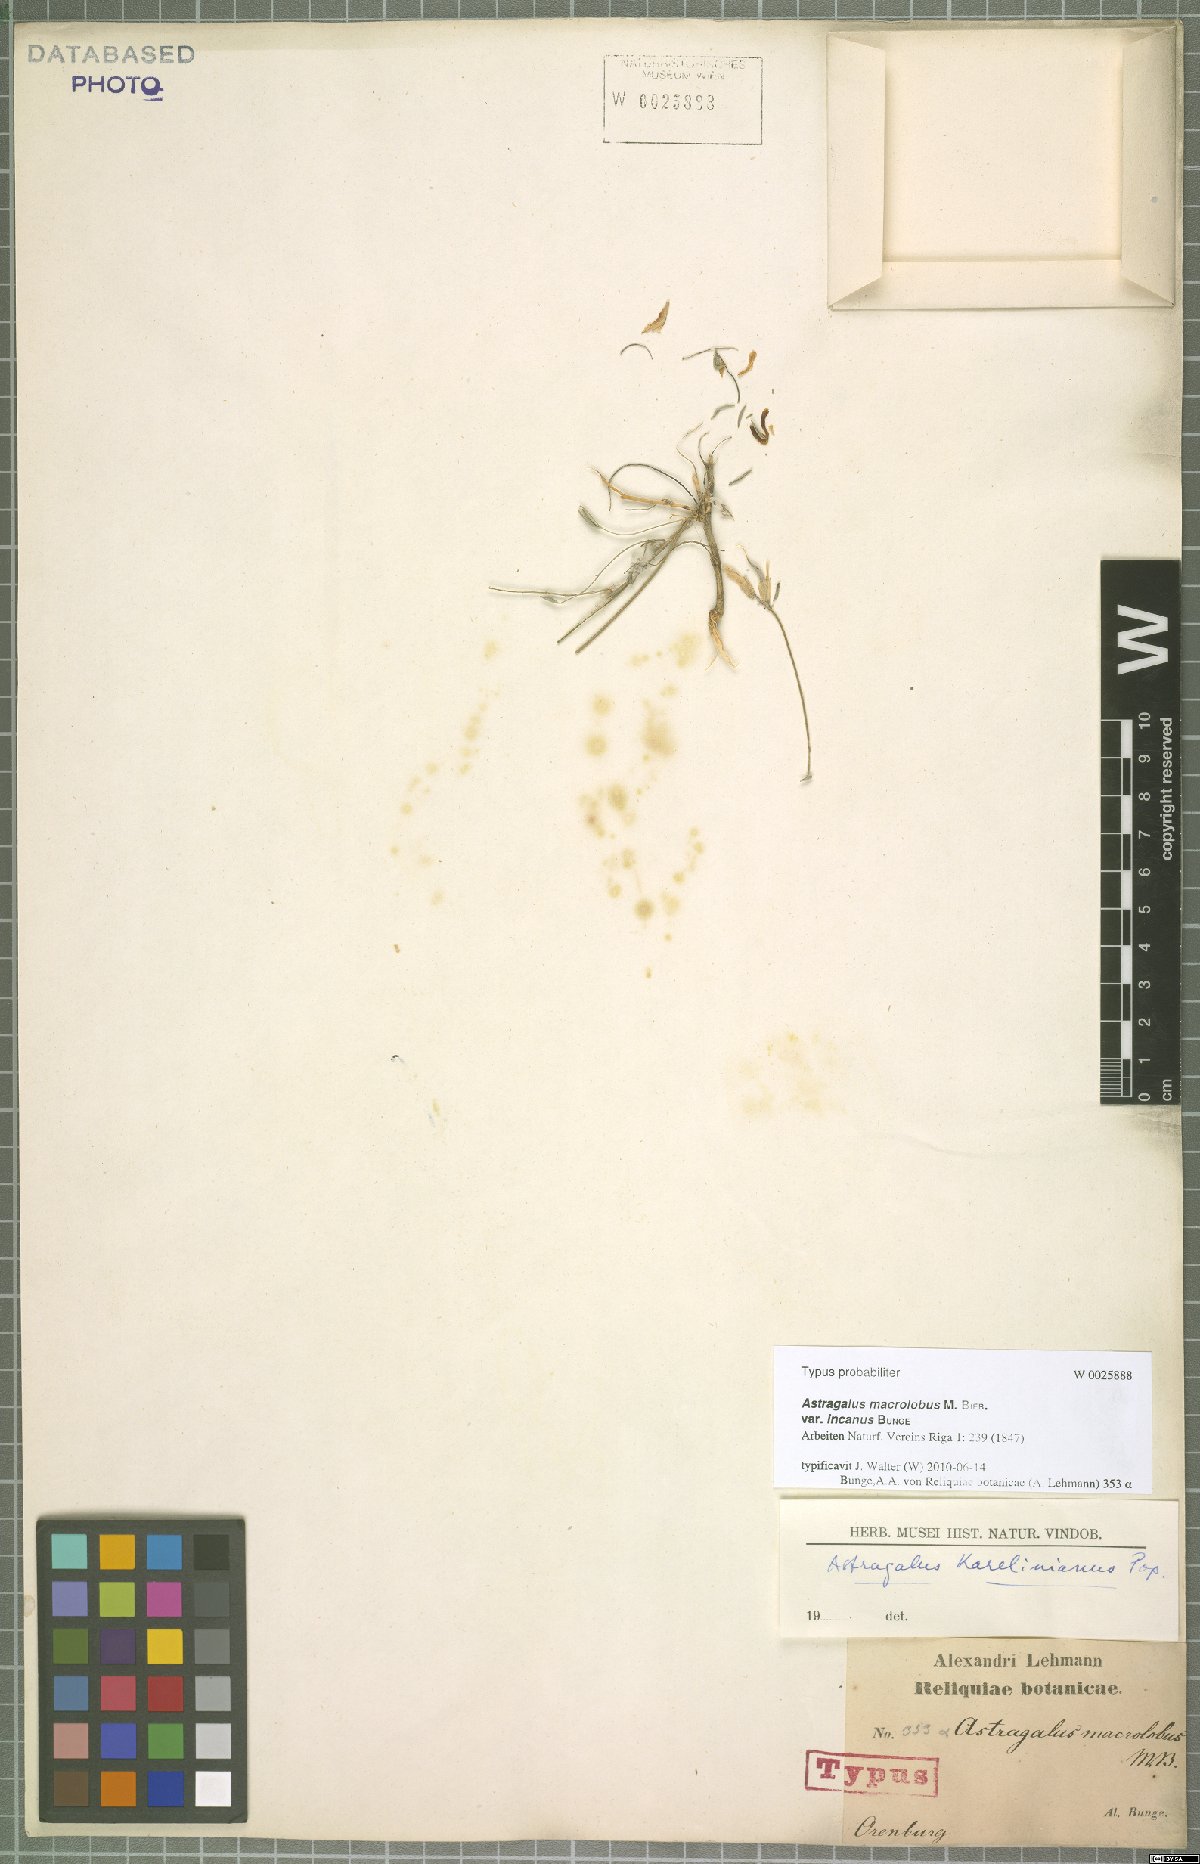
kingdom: Plantae
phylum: Tracheophyta
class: Magnoliopsida
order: Fabales
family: Fabaceae
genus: Astragalus
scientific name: Astragalus macrolobus
